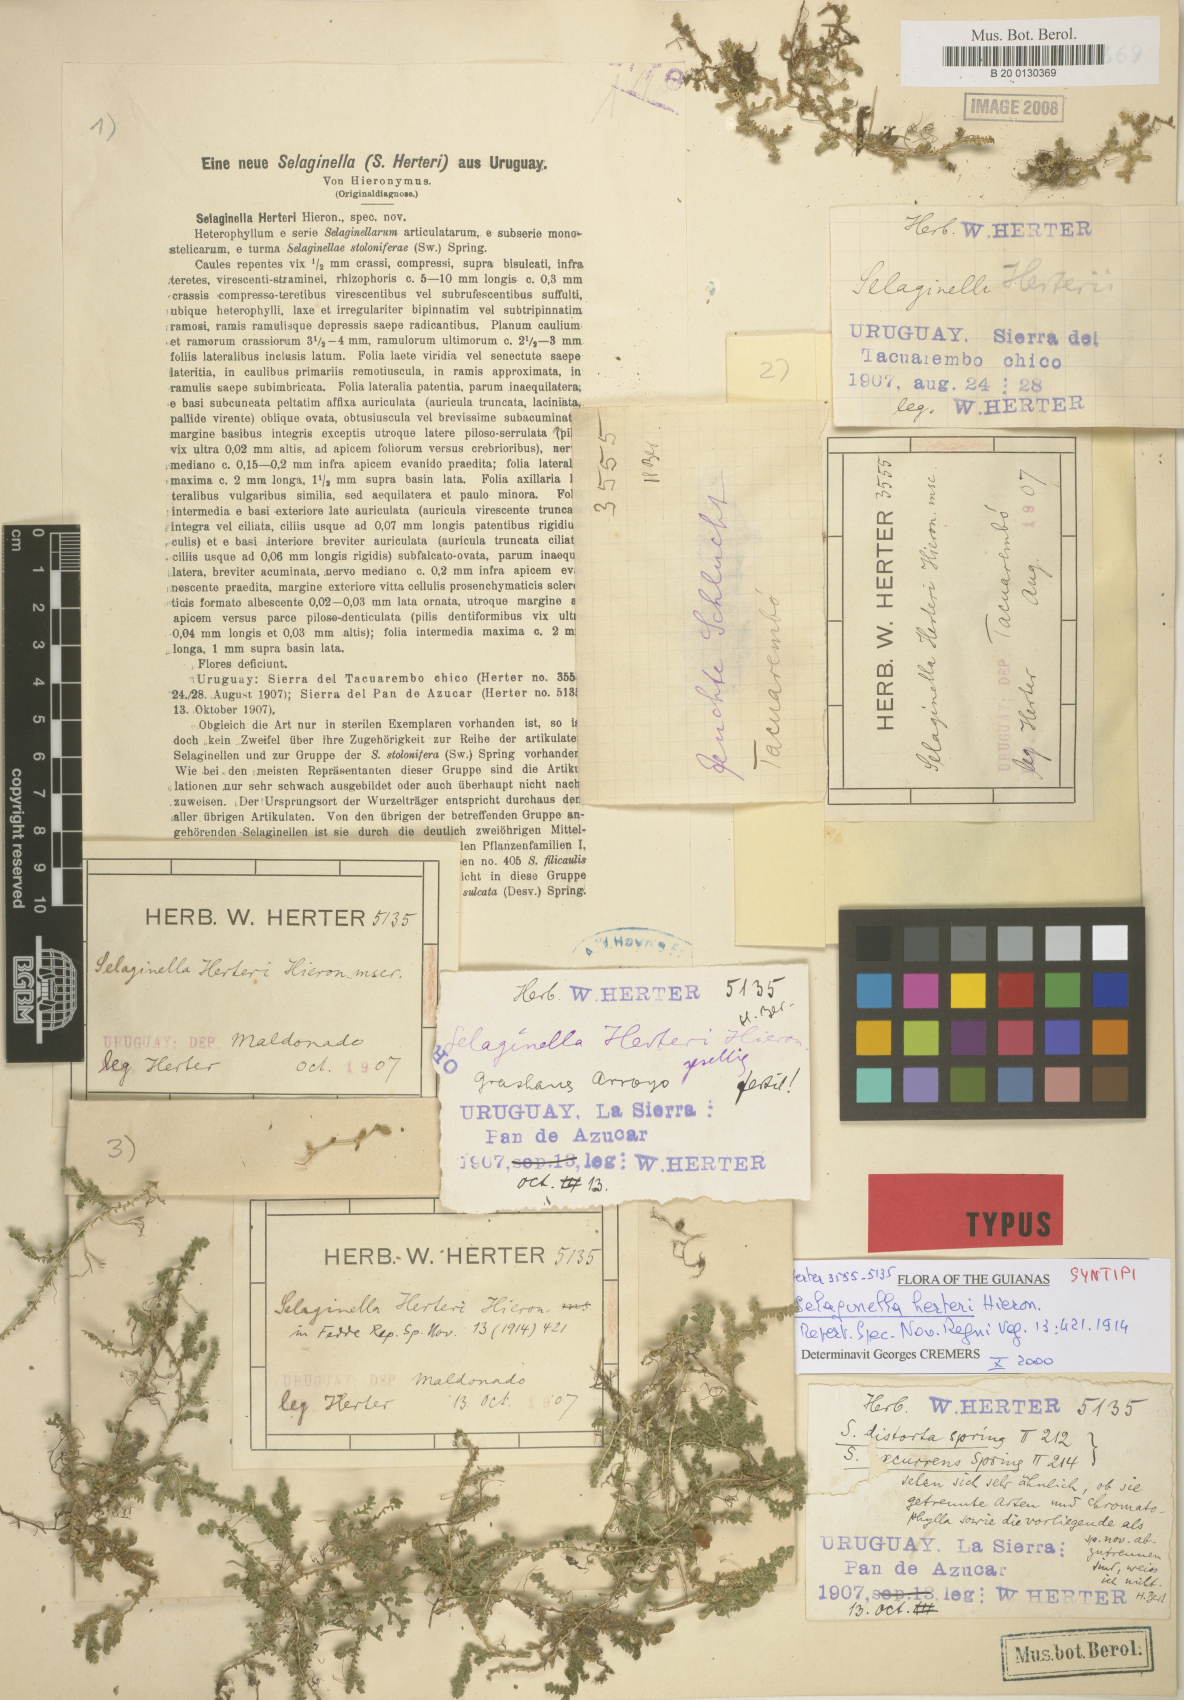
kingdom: Plantae
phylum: Tracheophyta
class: Lycopodiopsida
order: Selaginellales
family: Selaginellaceae
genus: Selaginella
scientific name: Selaginella marginata
